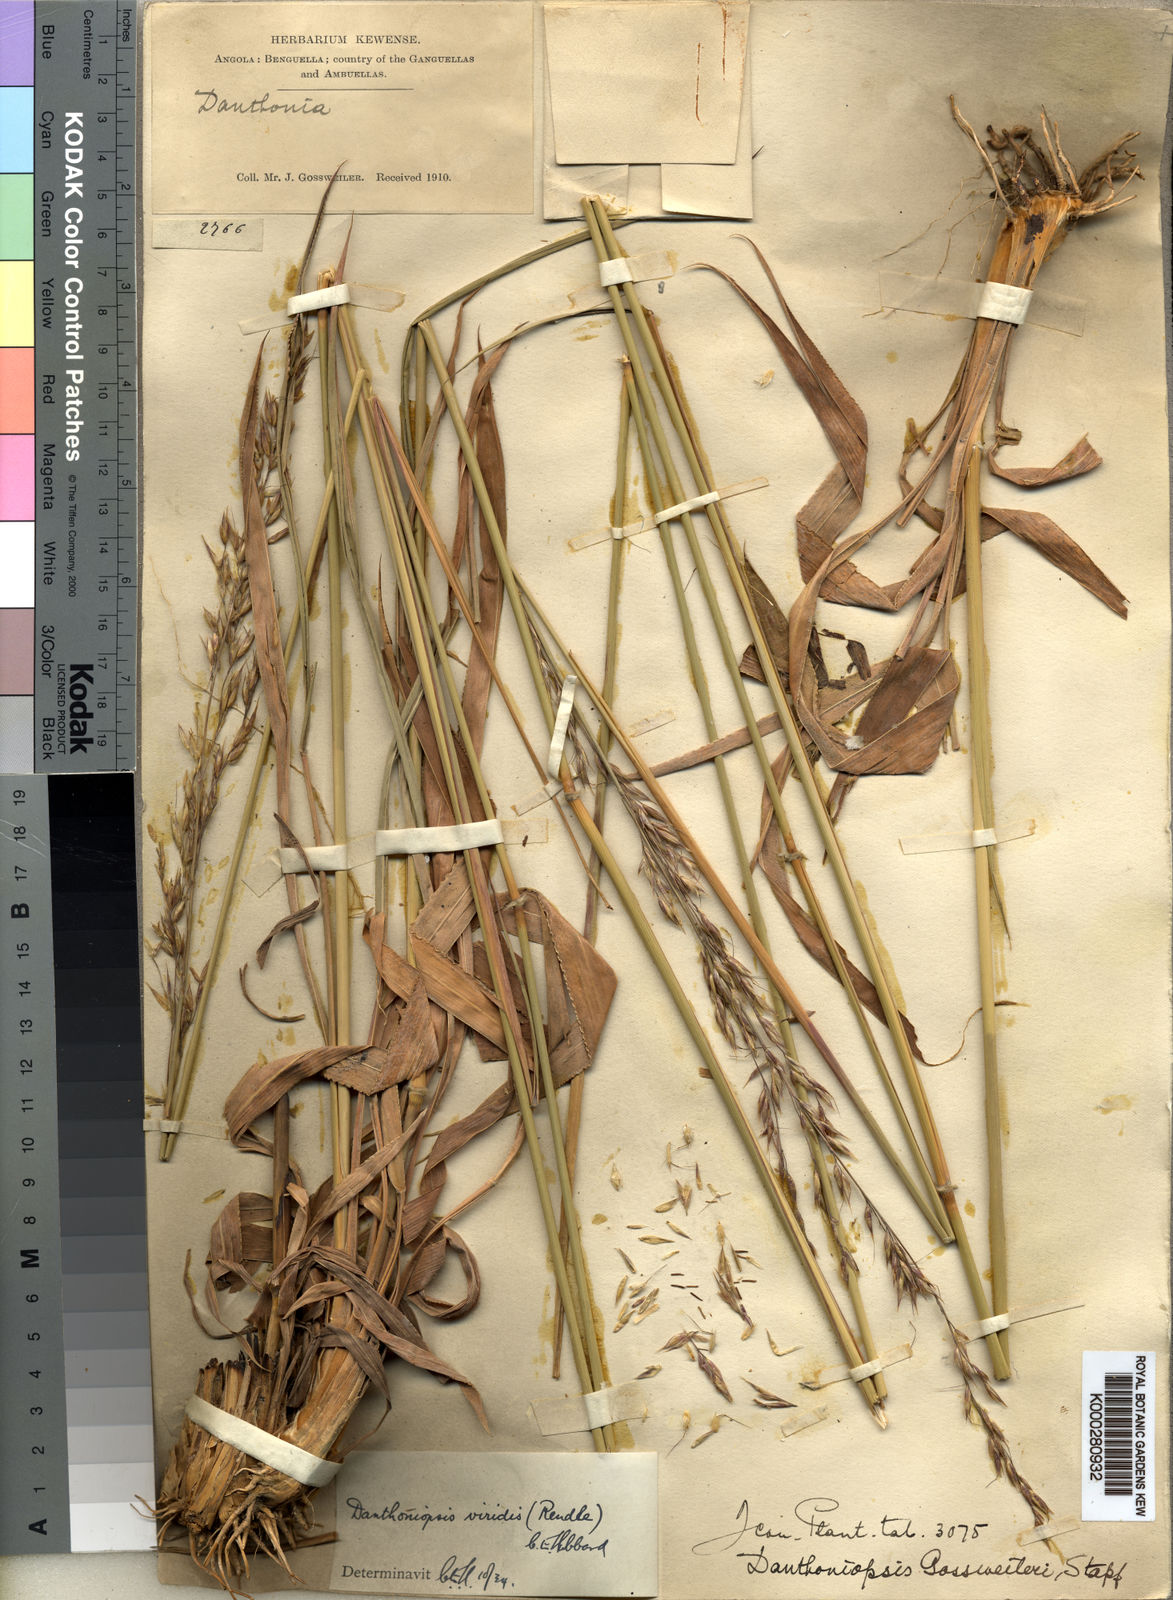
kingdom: Plantae
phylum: Tracheophyta
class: Liliopsida
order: Poales
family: Poaceae
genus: Danthoniopsis
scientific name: Danthoniopsis viridis
